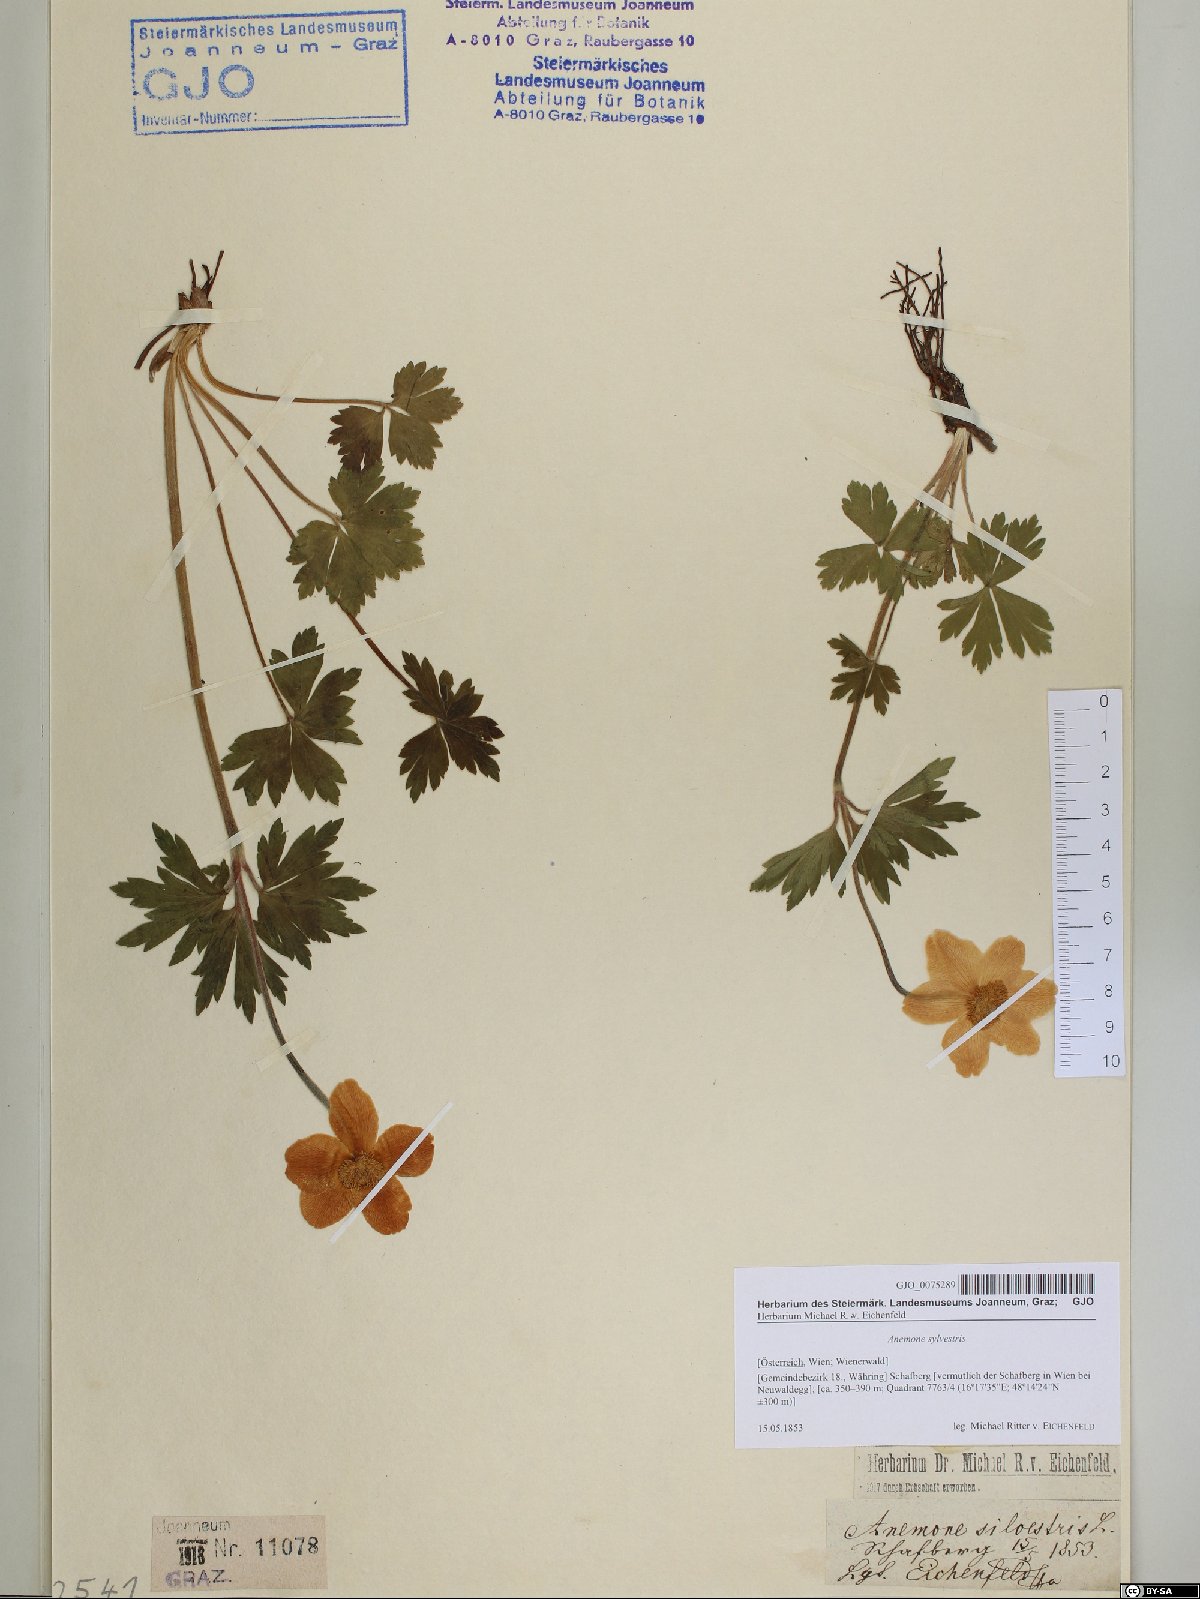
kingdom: Plantae
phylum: Tracheophyta
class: Magnoliopsida
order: Ranunculales
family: Ranunculaceae
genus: Anemone
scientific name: Anemone sylvestris
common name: Snowdrop anemone
